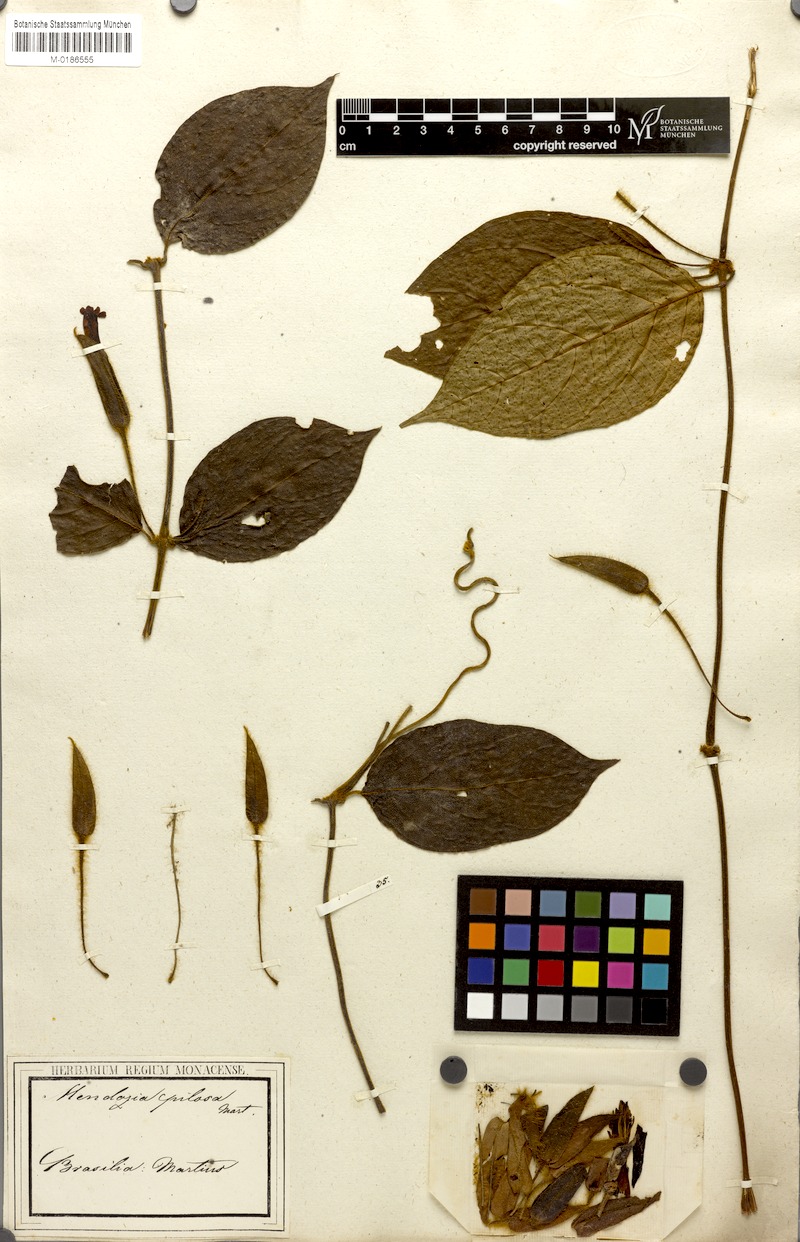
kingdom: Plantae
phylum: Tracheophyta
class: Magnoliopsida
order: Lamiales
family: Acanthaceae
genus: Mendoncia
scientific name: Mendoncia pilosa
